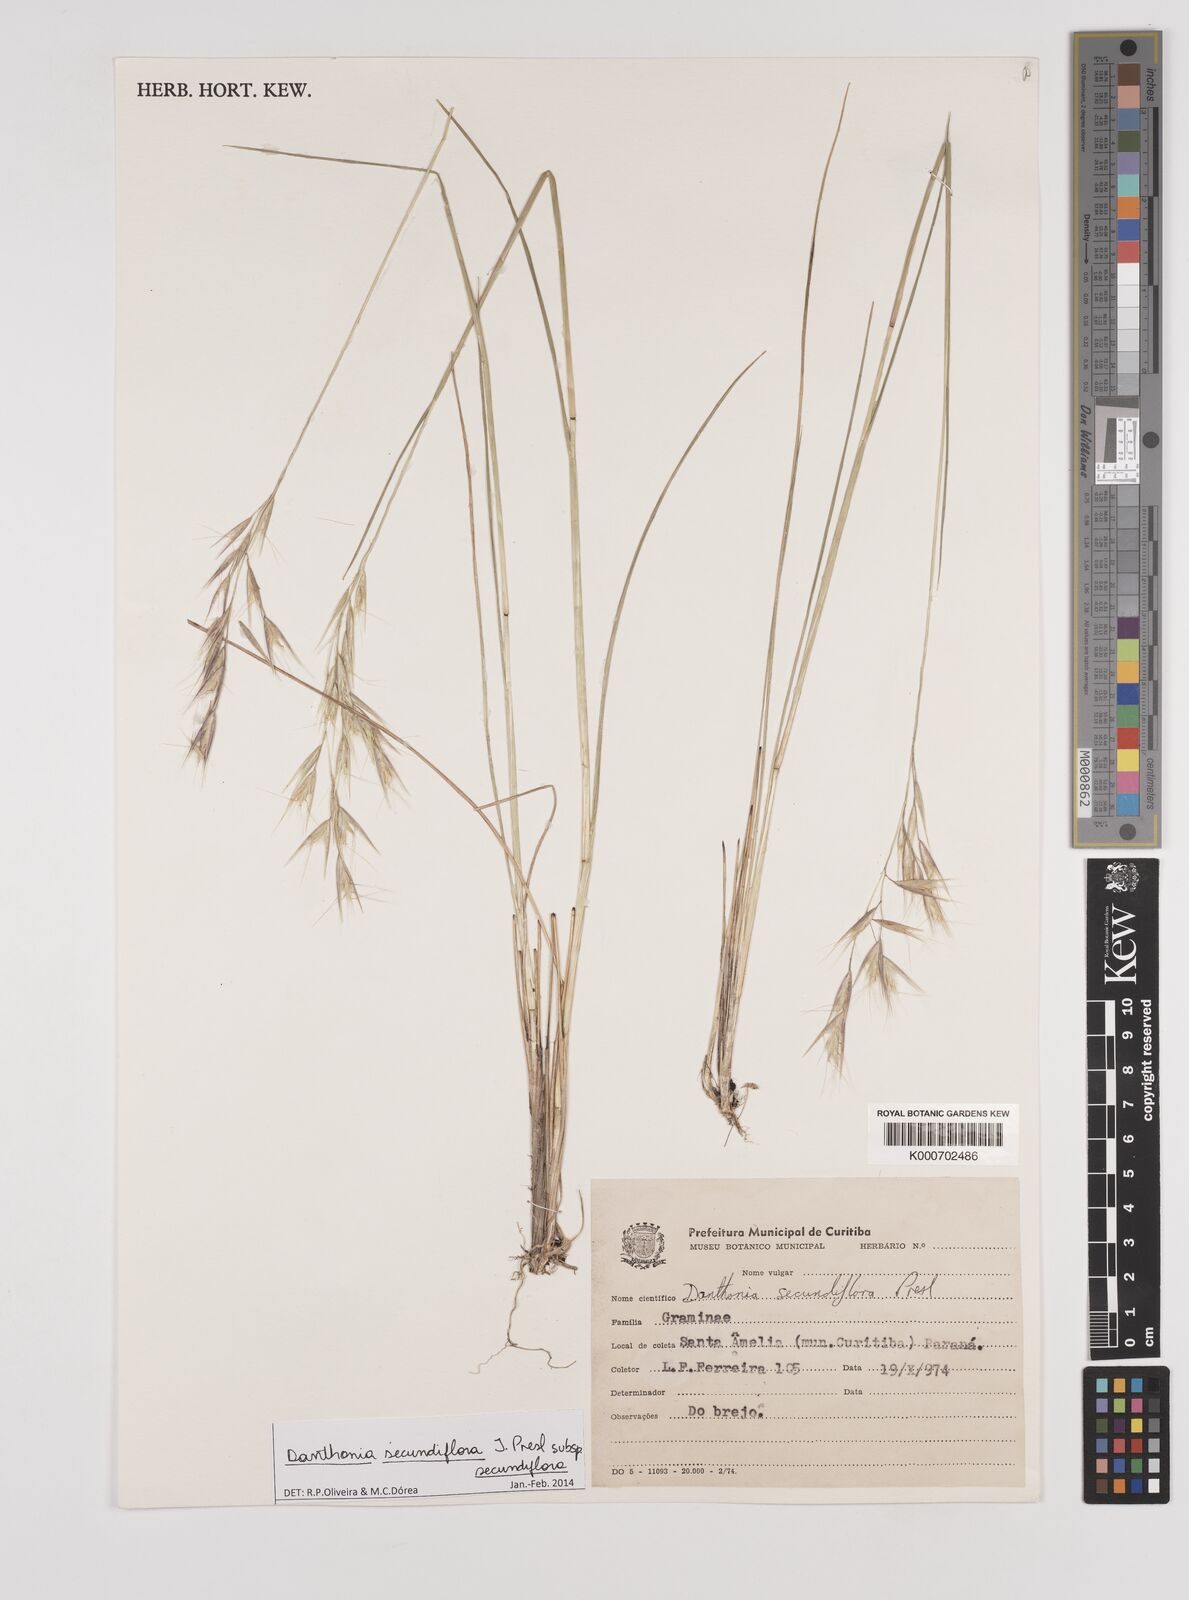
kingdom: Plantae
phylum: Tracheophyta
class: Liliopsida
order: Poales
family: Poaceae
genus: Danthonia
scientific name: Danthonia secundiflora
